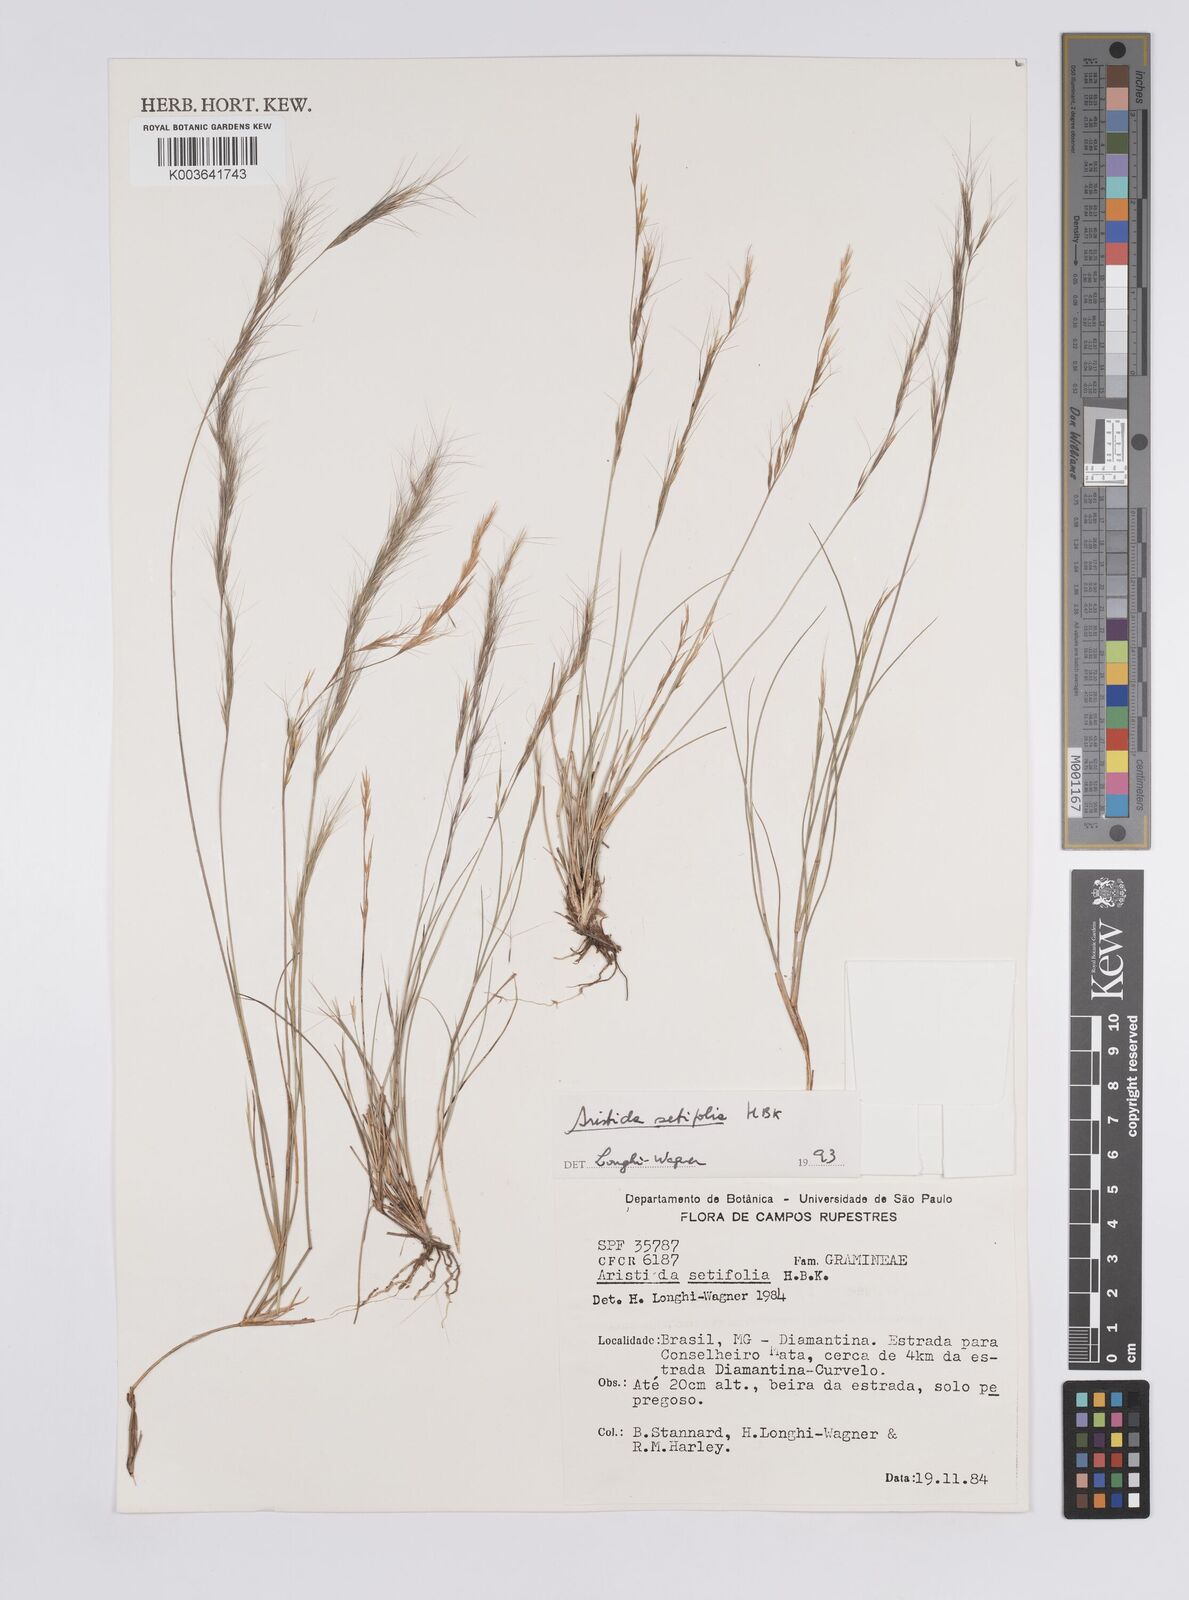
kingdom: Plantae
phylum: Tracheophyta
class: Liliopsida
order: Poales
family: Poaceae
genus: Aristida
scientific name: Aristida setifolia
